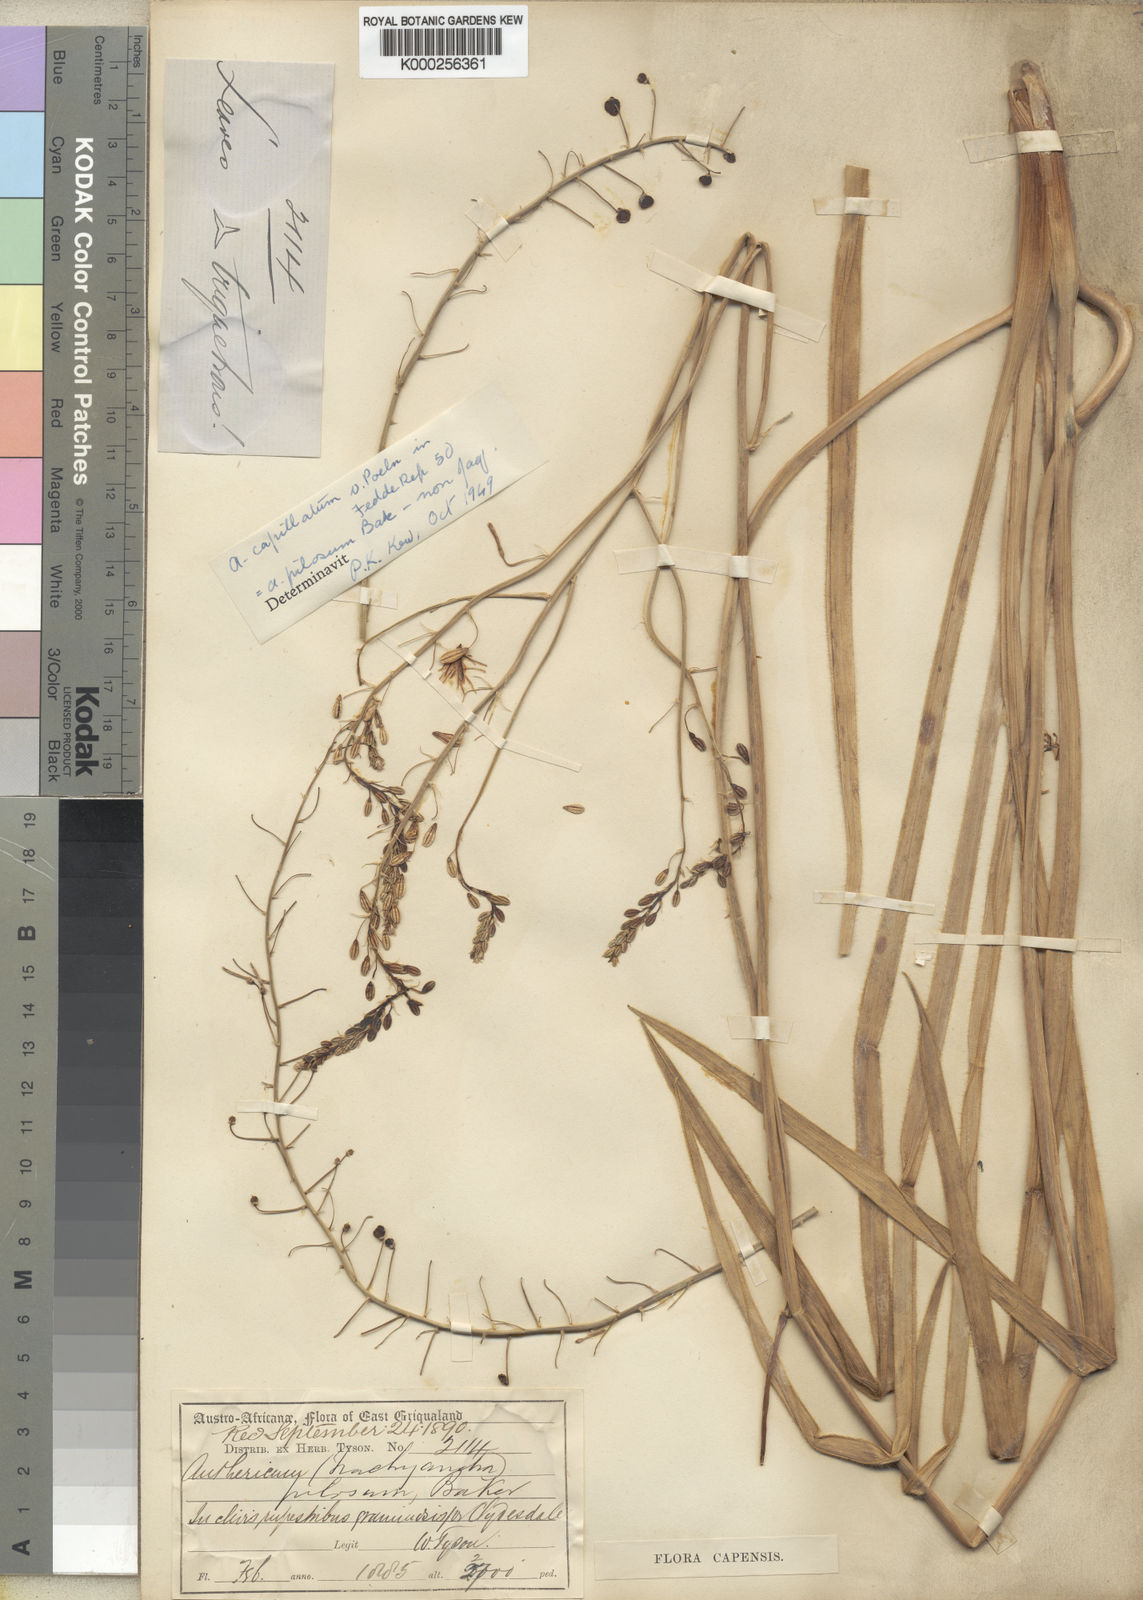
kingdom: Plantae
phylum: Tracheophyta
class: Liliopsida
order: Asparagales
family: Asphodelaceae
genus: Trachyandra
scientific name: Trachyandra capillata
